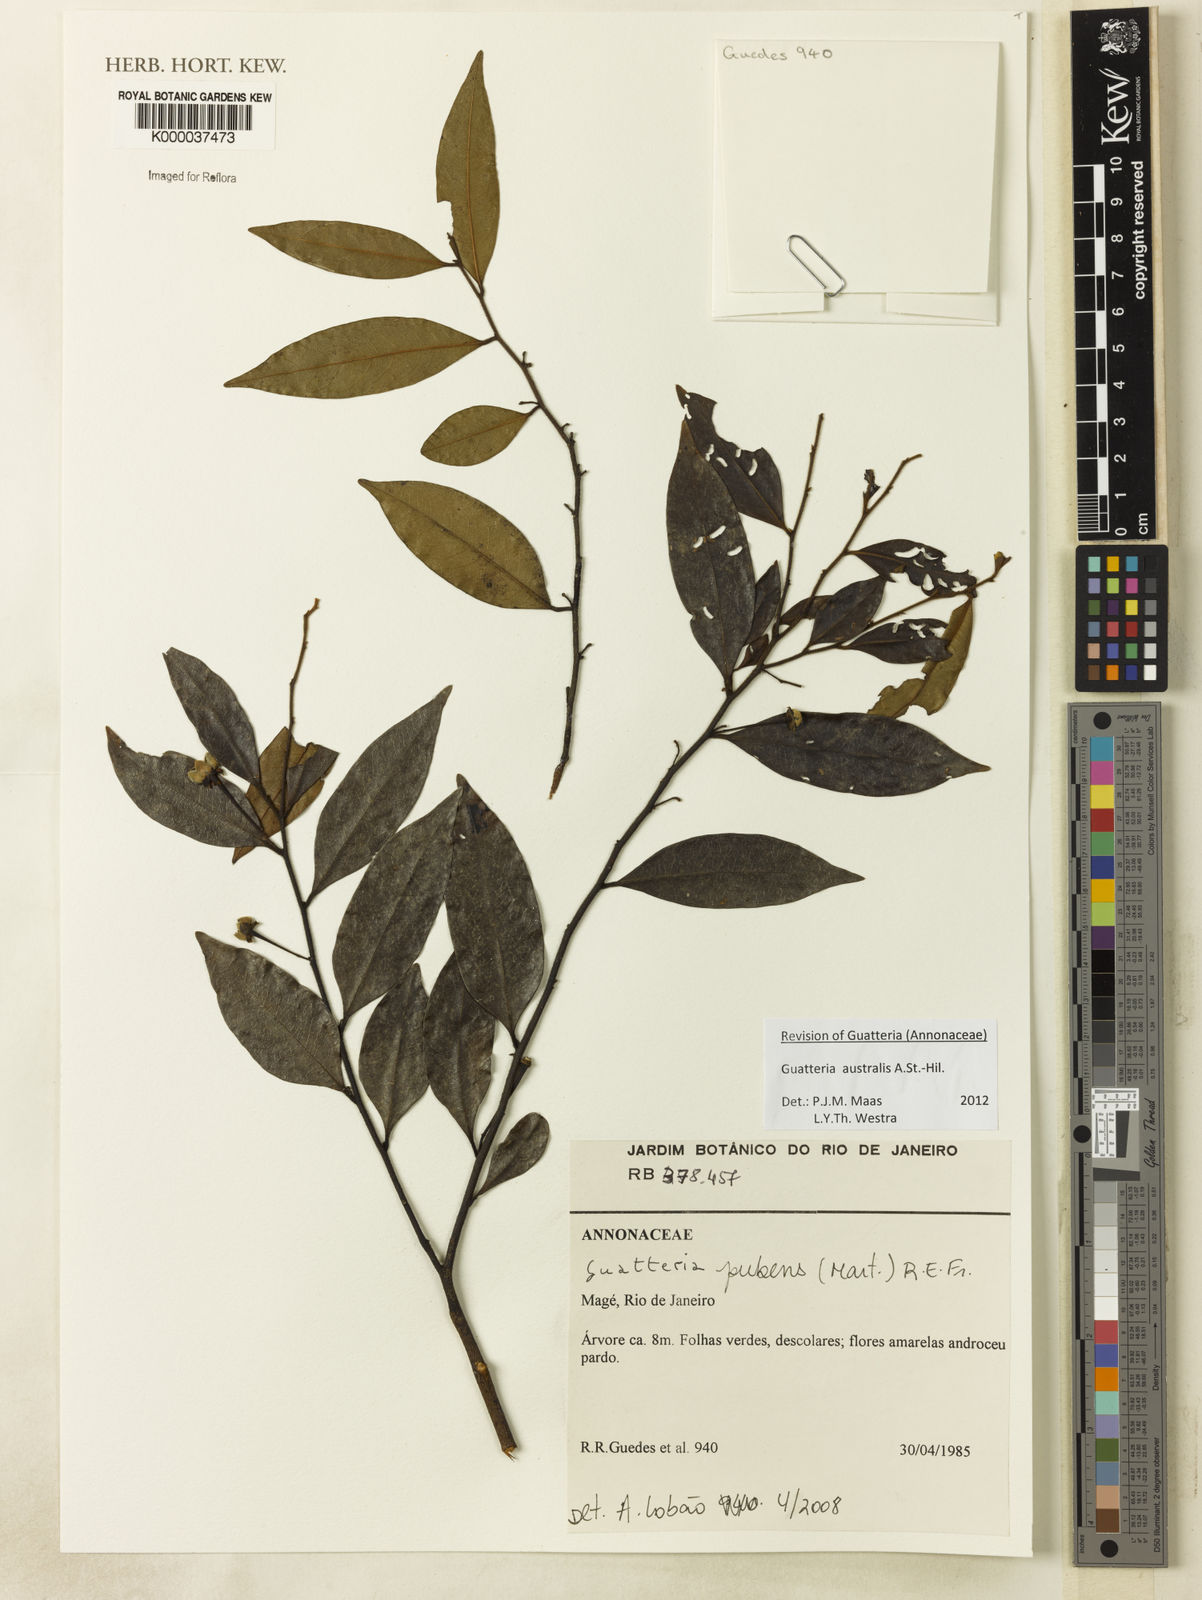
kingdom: Plantae
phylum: Tracheophyta
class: Magnoliopsida
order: Magnoliales
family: Annonaceae
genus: Guatteria
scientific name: Guatteria sellowiana
